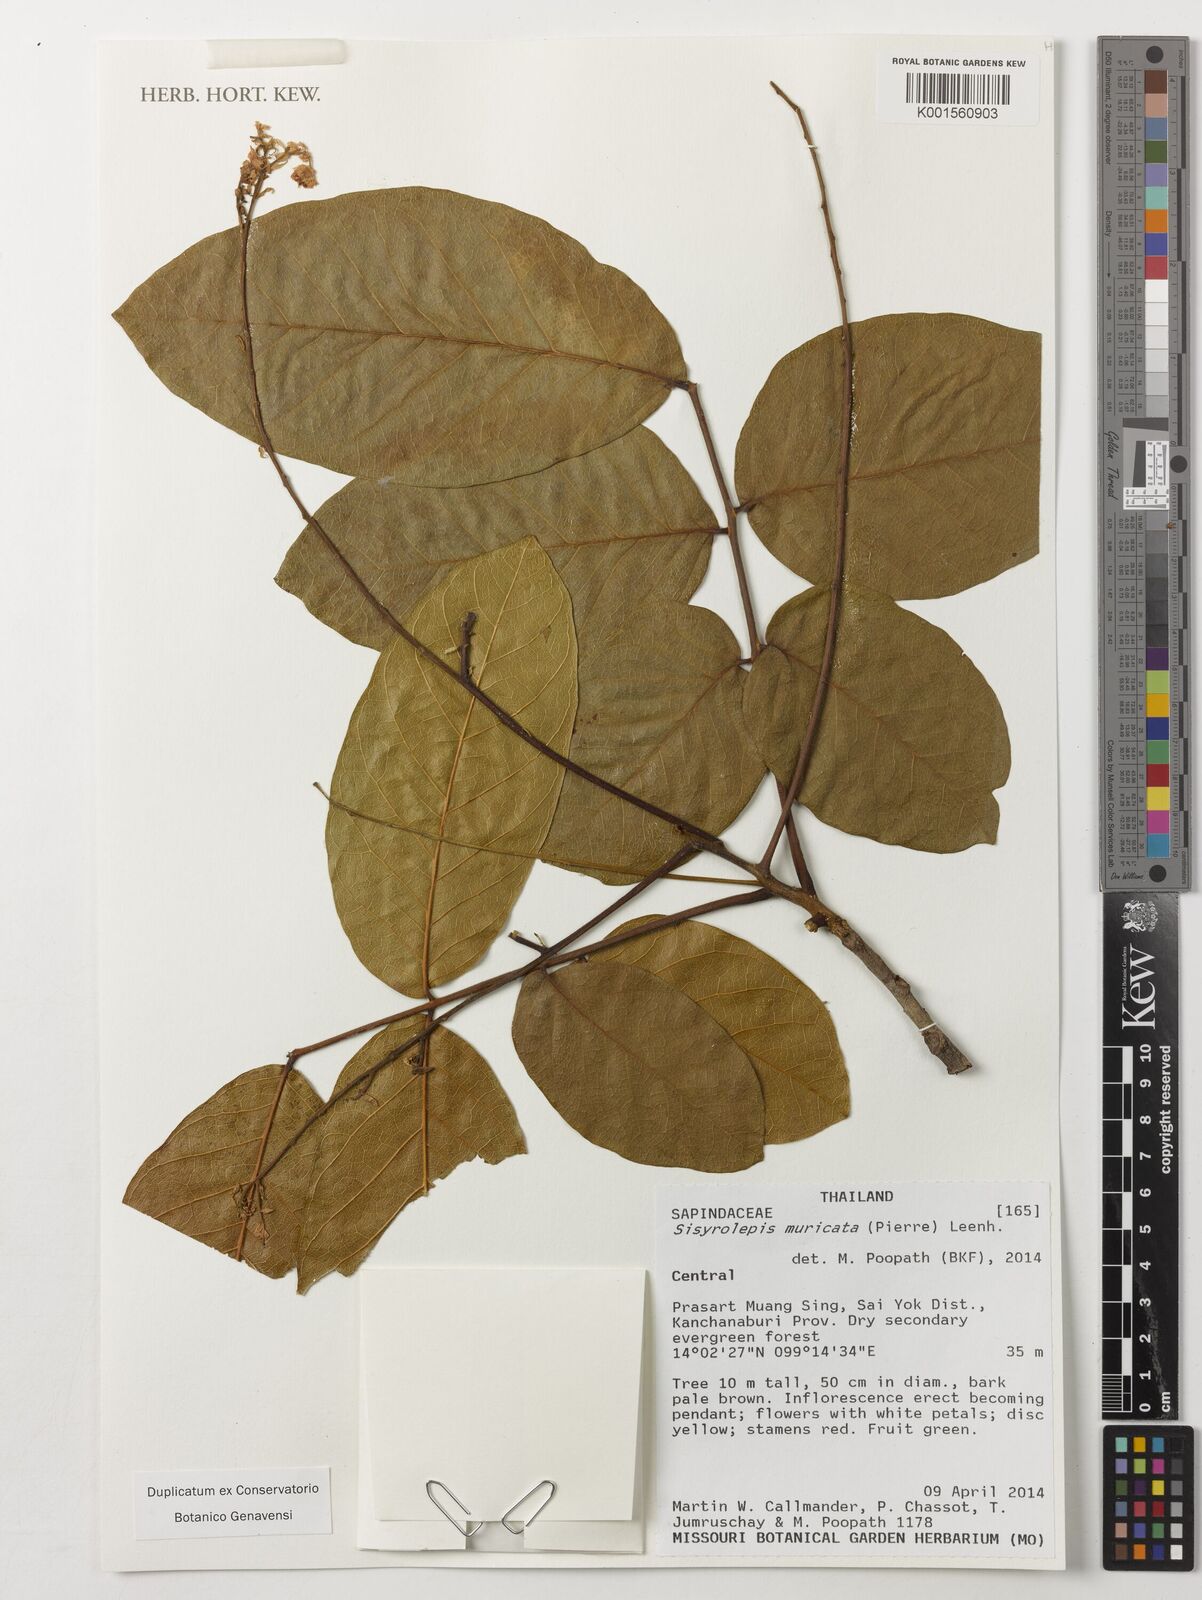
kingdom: Plantae
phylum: Tracheophyta
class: Magnoliopsida
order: Sapindales
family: Sapindaceae
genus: Sisyrolepis
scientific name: Sisyrolepis muricata
